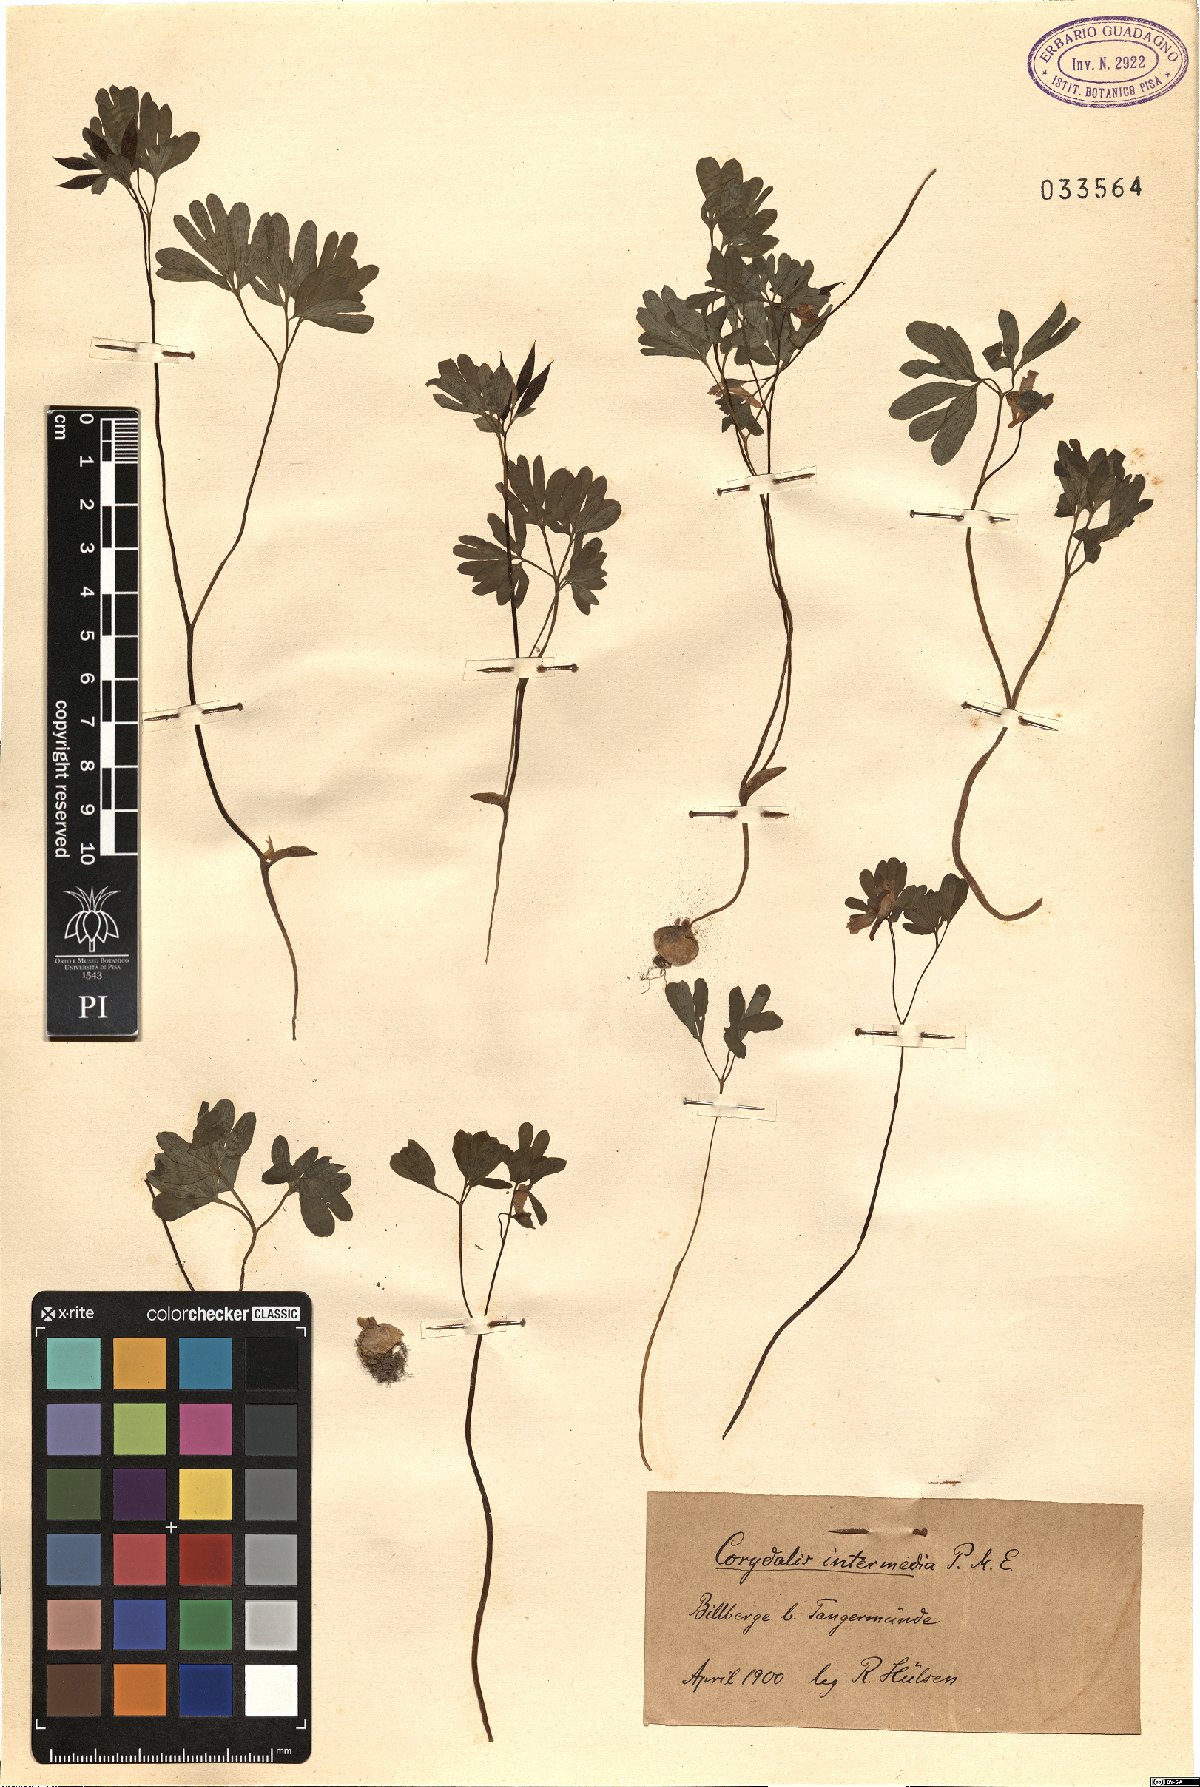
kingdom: Plantae
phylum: Tracheophyta
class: Magnoliopsida
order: Ranunculales
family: Papaveraceae
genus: Corydalis
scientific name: Corydalis intermedia
